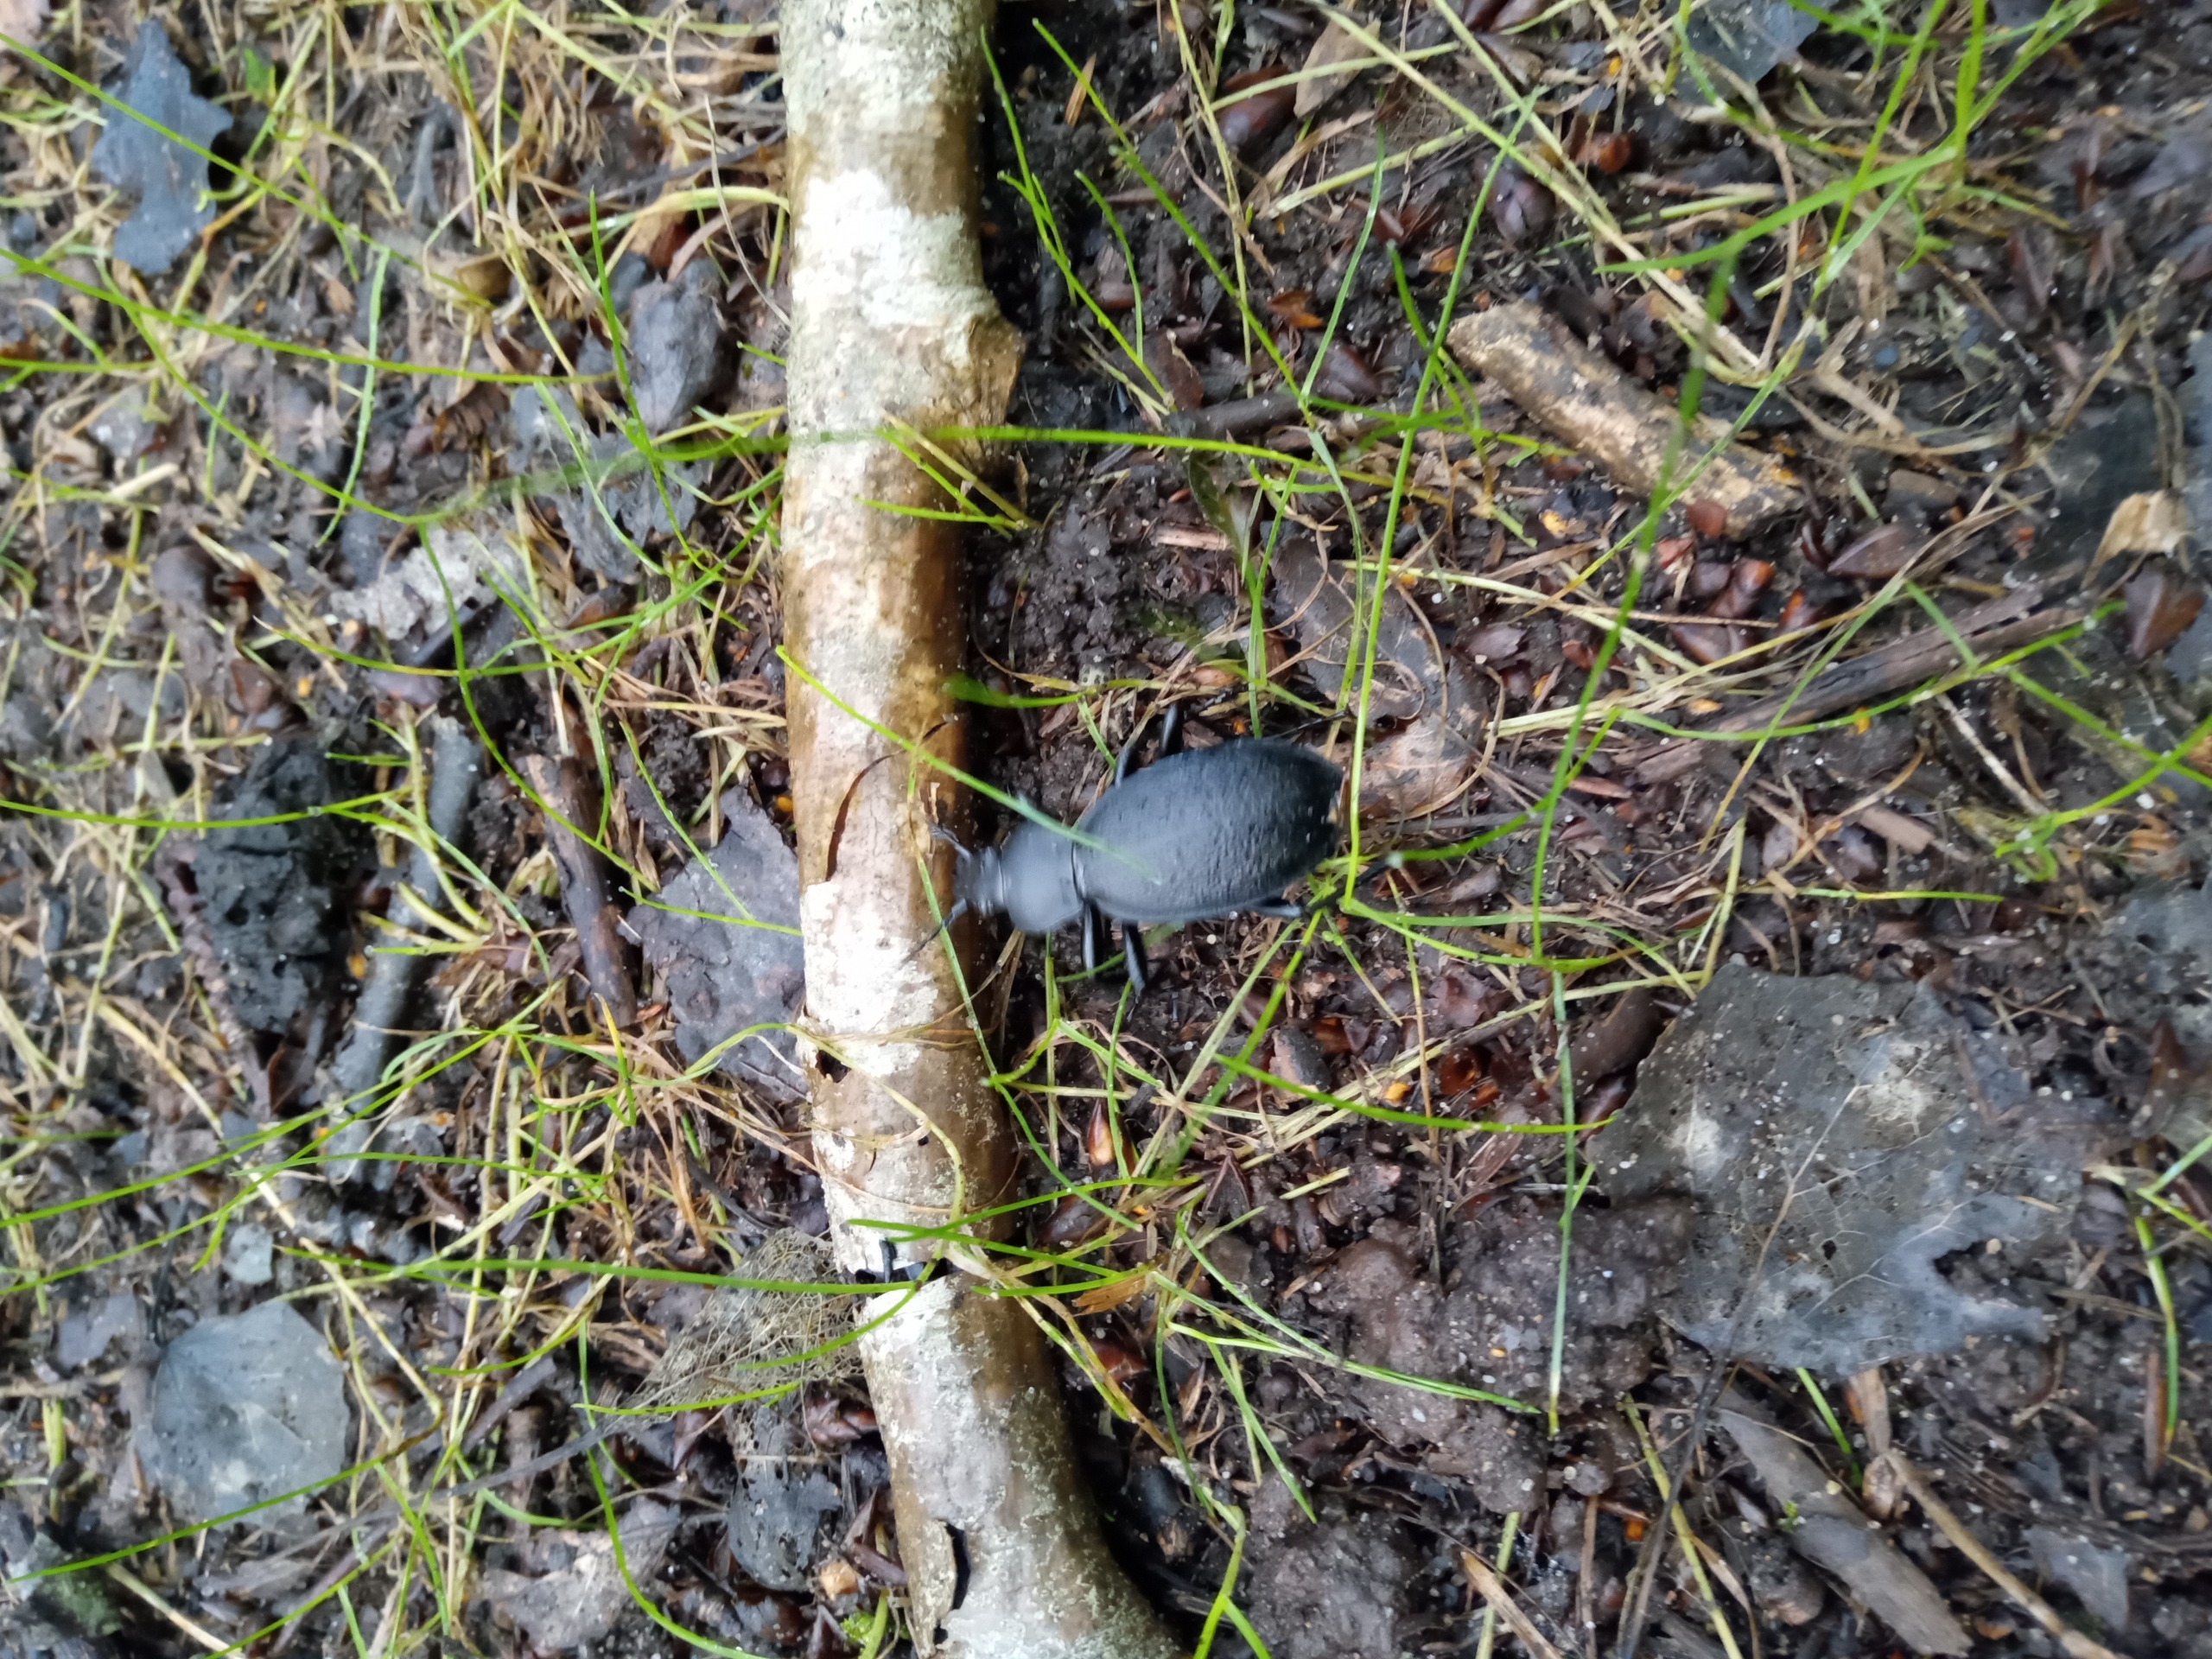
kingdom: Animalia
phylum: Arthropoda
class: Insecta
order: Coleoptera
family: Carabidae
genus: Carabus
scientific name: Carabus coriaceus
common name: Læderløber
